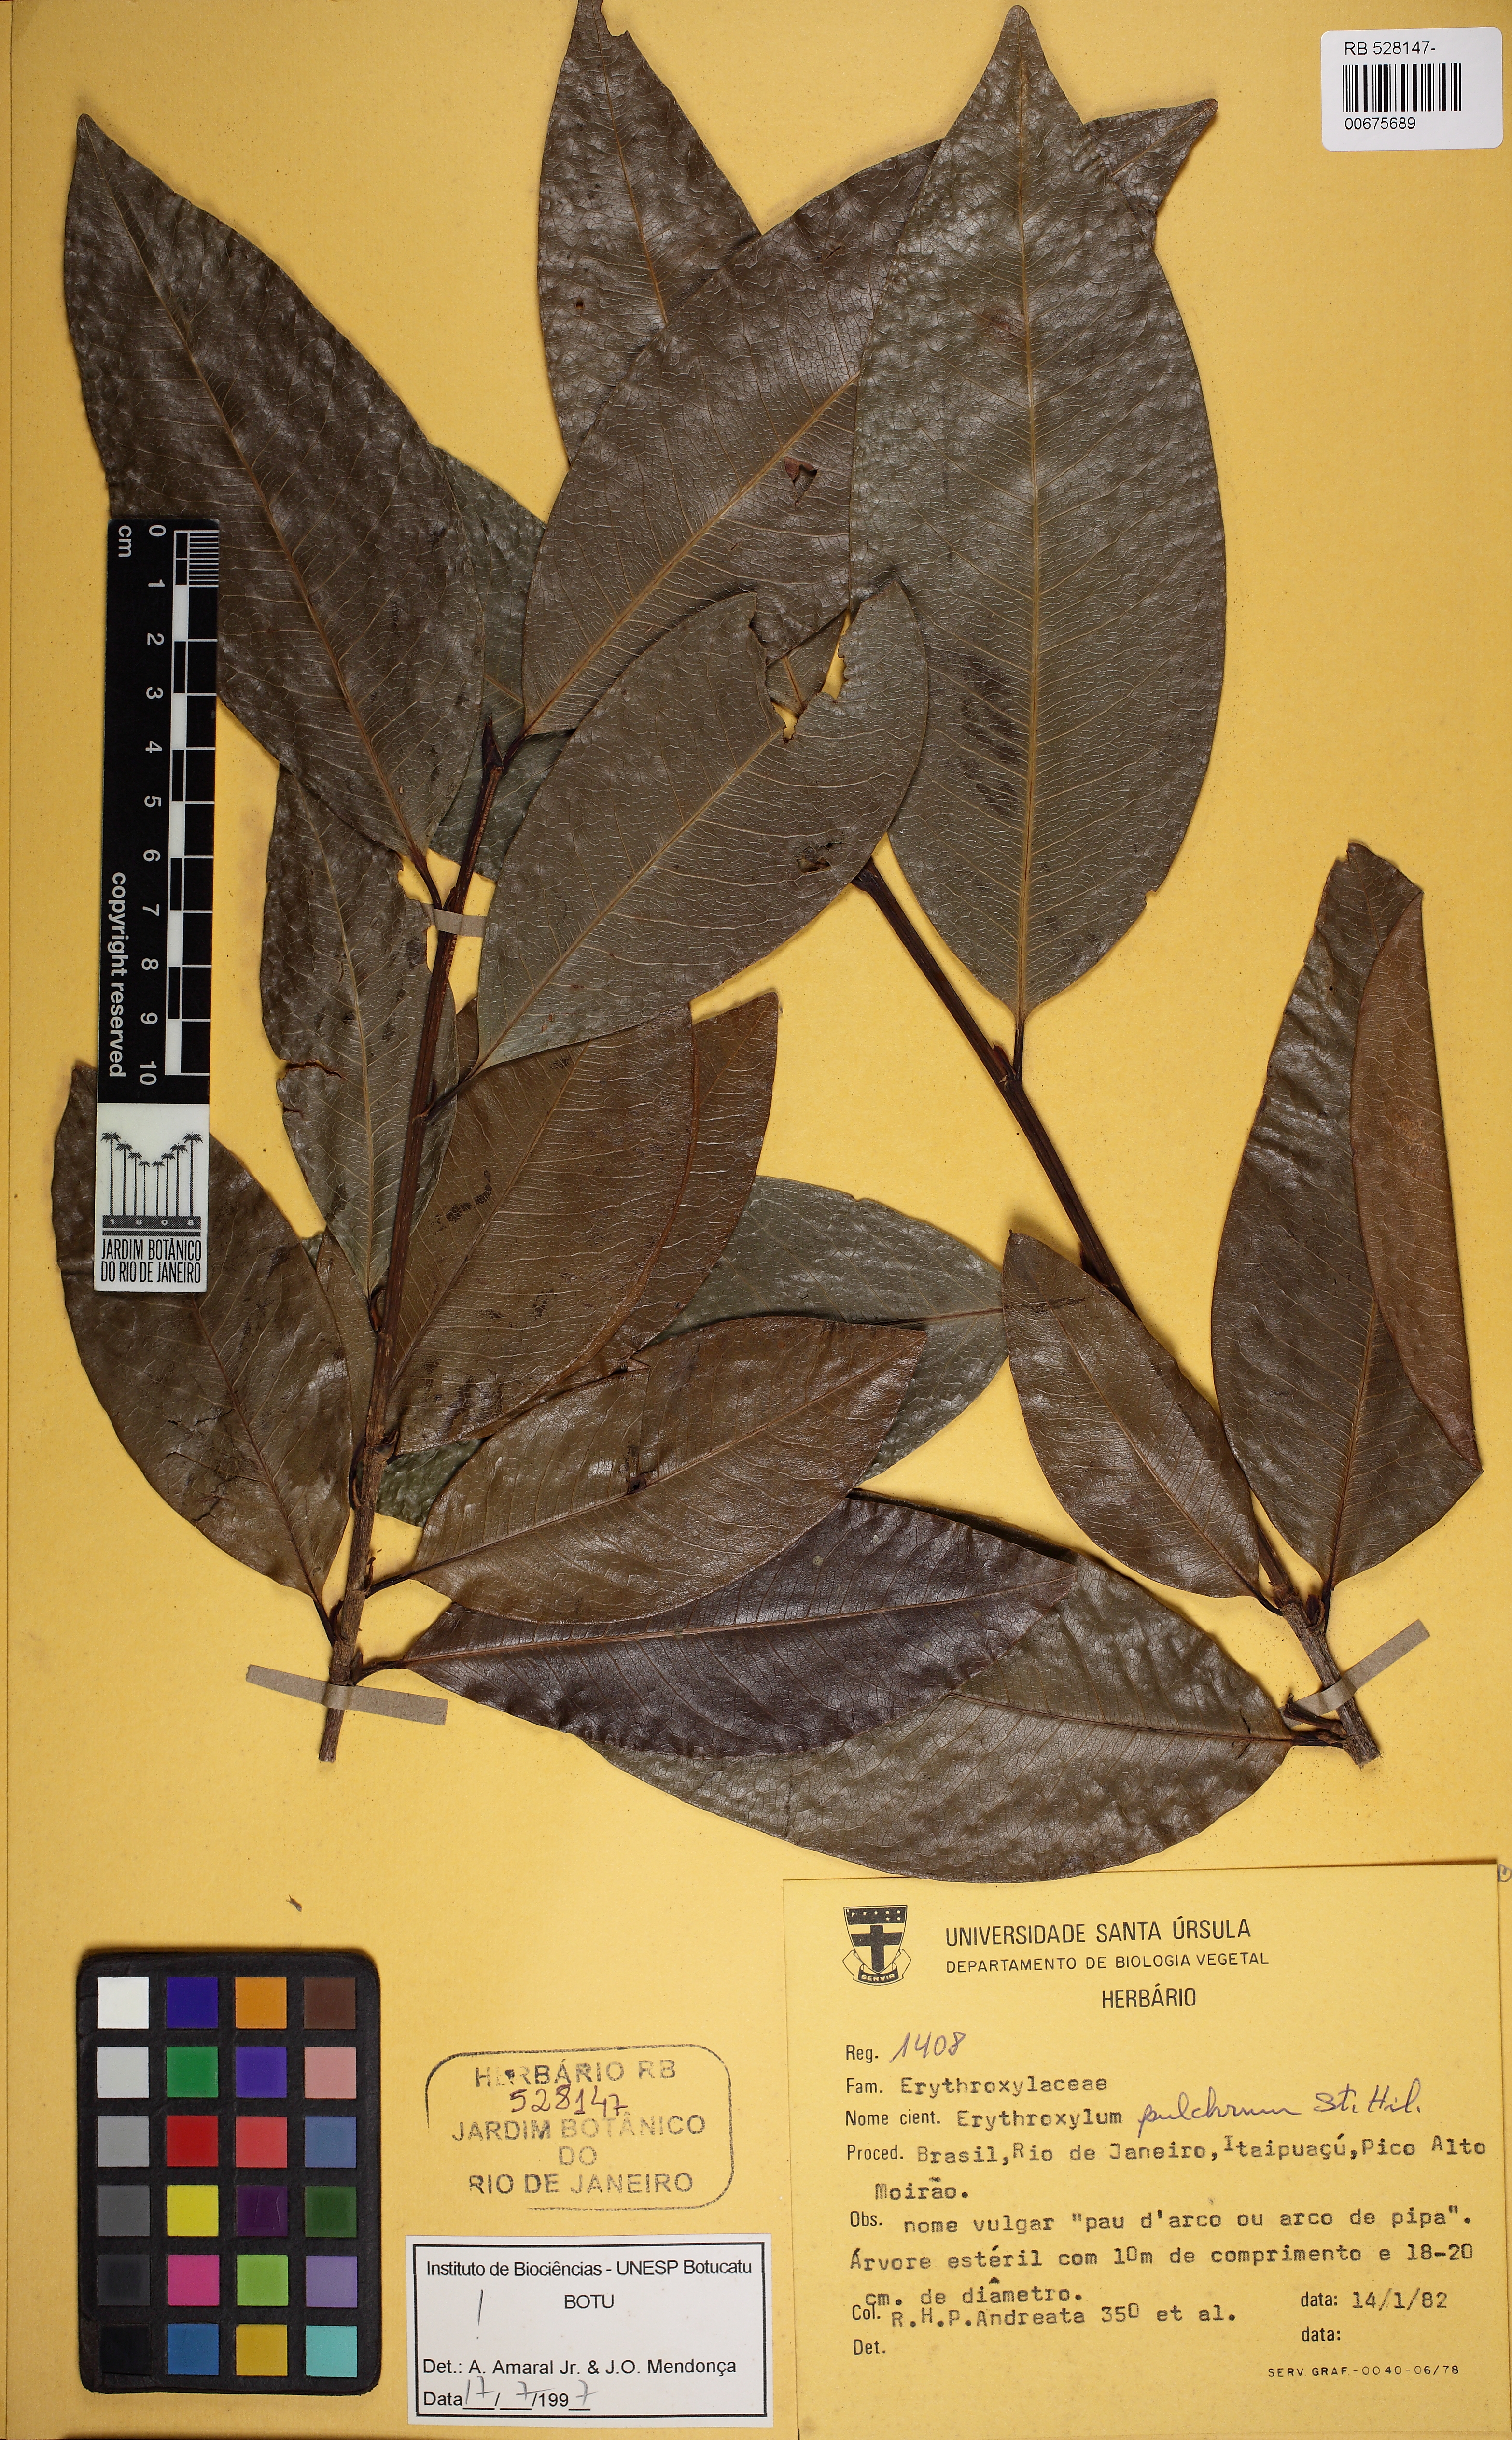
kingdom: Plantae
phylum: Tracheophyta
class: Magnoliopsida
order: Malpighiales
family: Erythroxylaceae
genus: Erythroxylum
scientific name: Erythroxylum pulchrum
